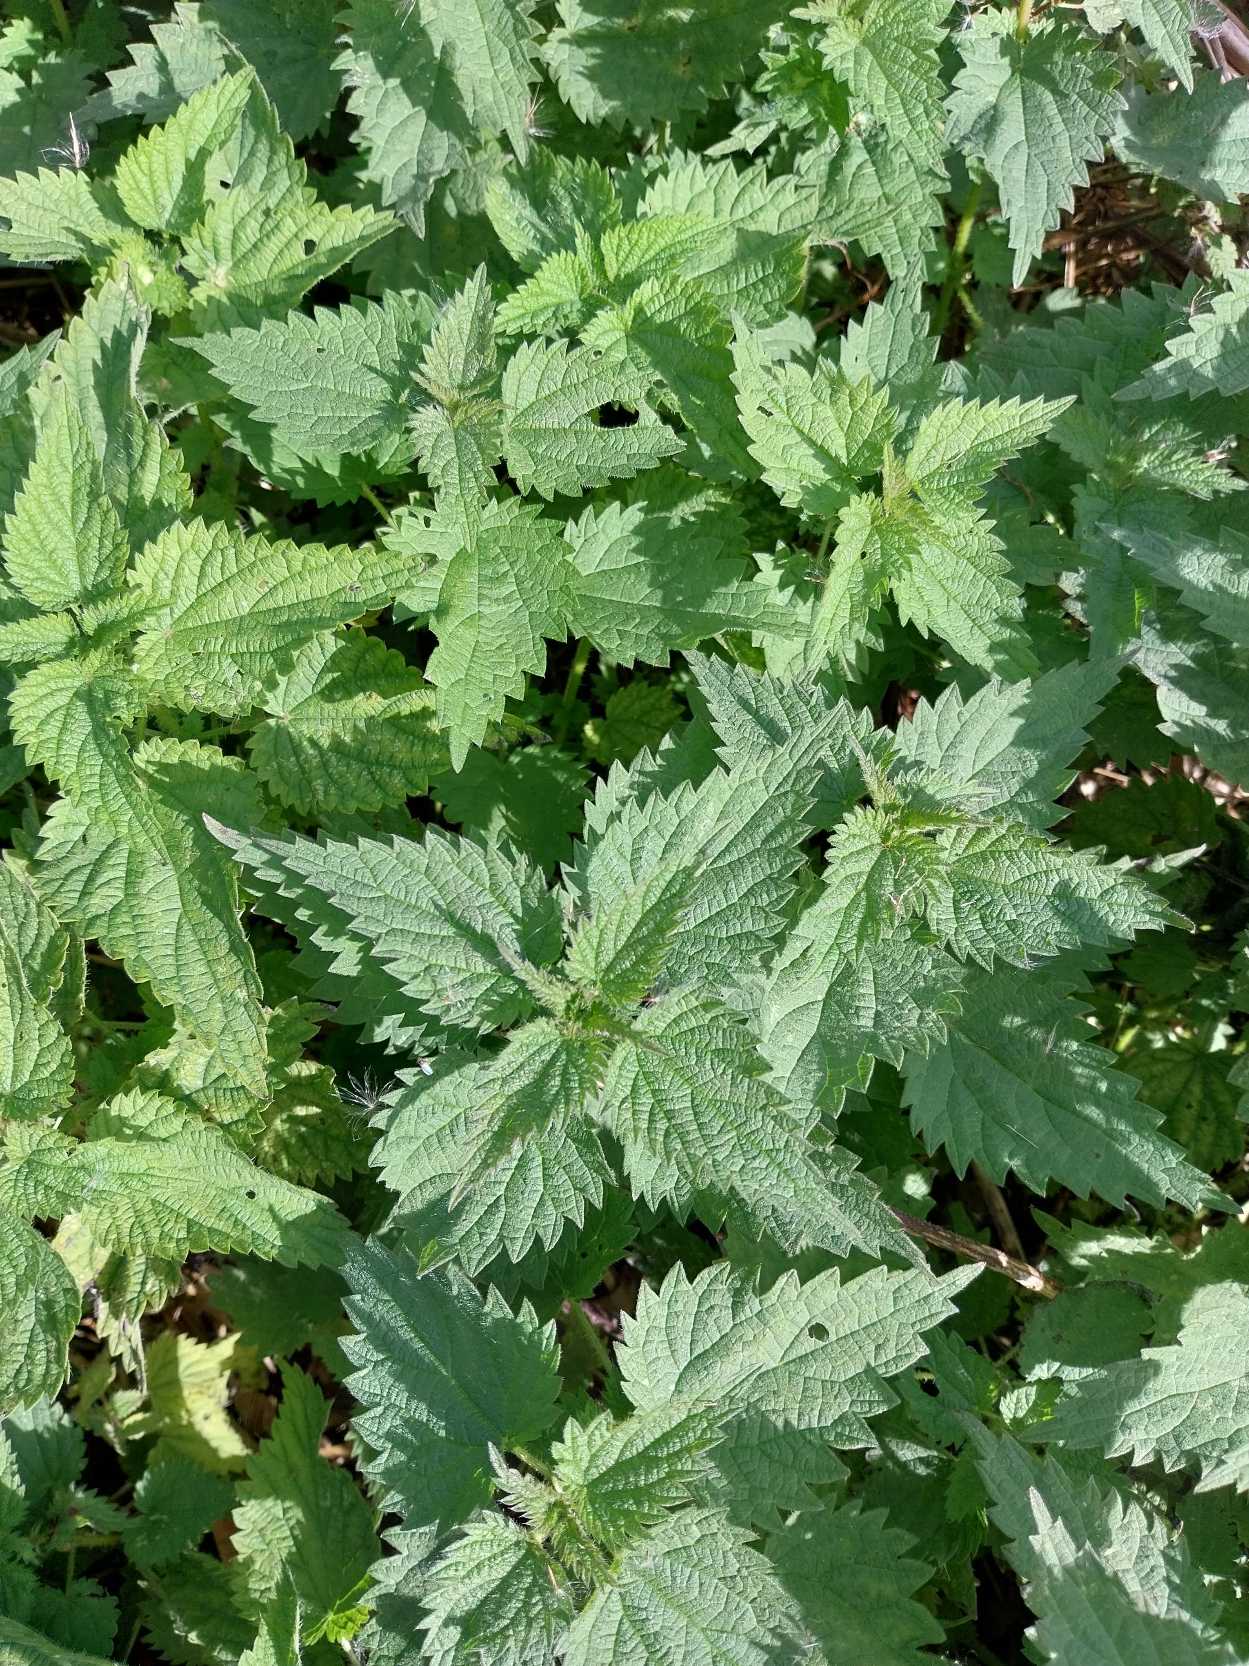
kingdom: Plantae
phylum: Tracheophyta
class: Magnoliopsida
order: Rosales
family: Urticaceae
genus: Urtica
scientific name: Urtica dioica
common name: Stor nælde
